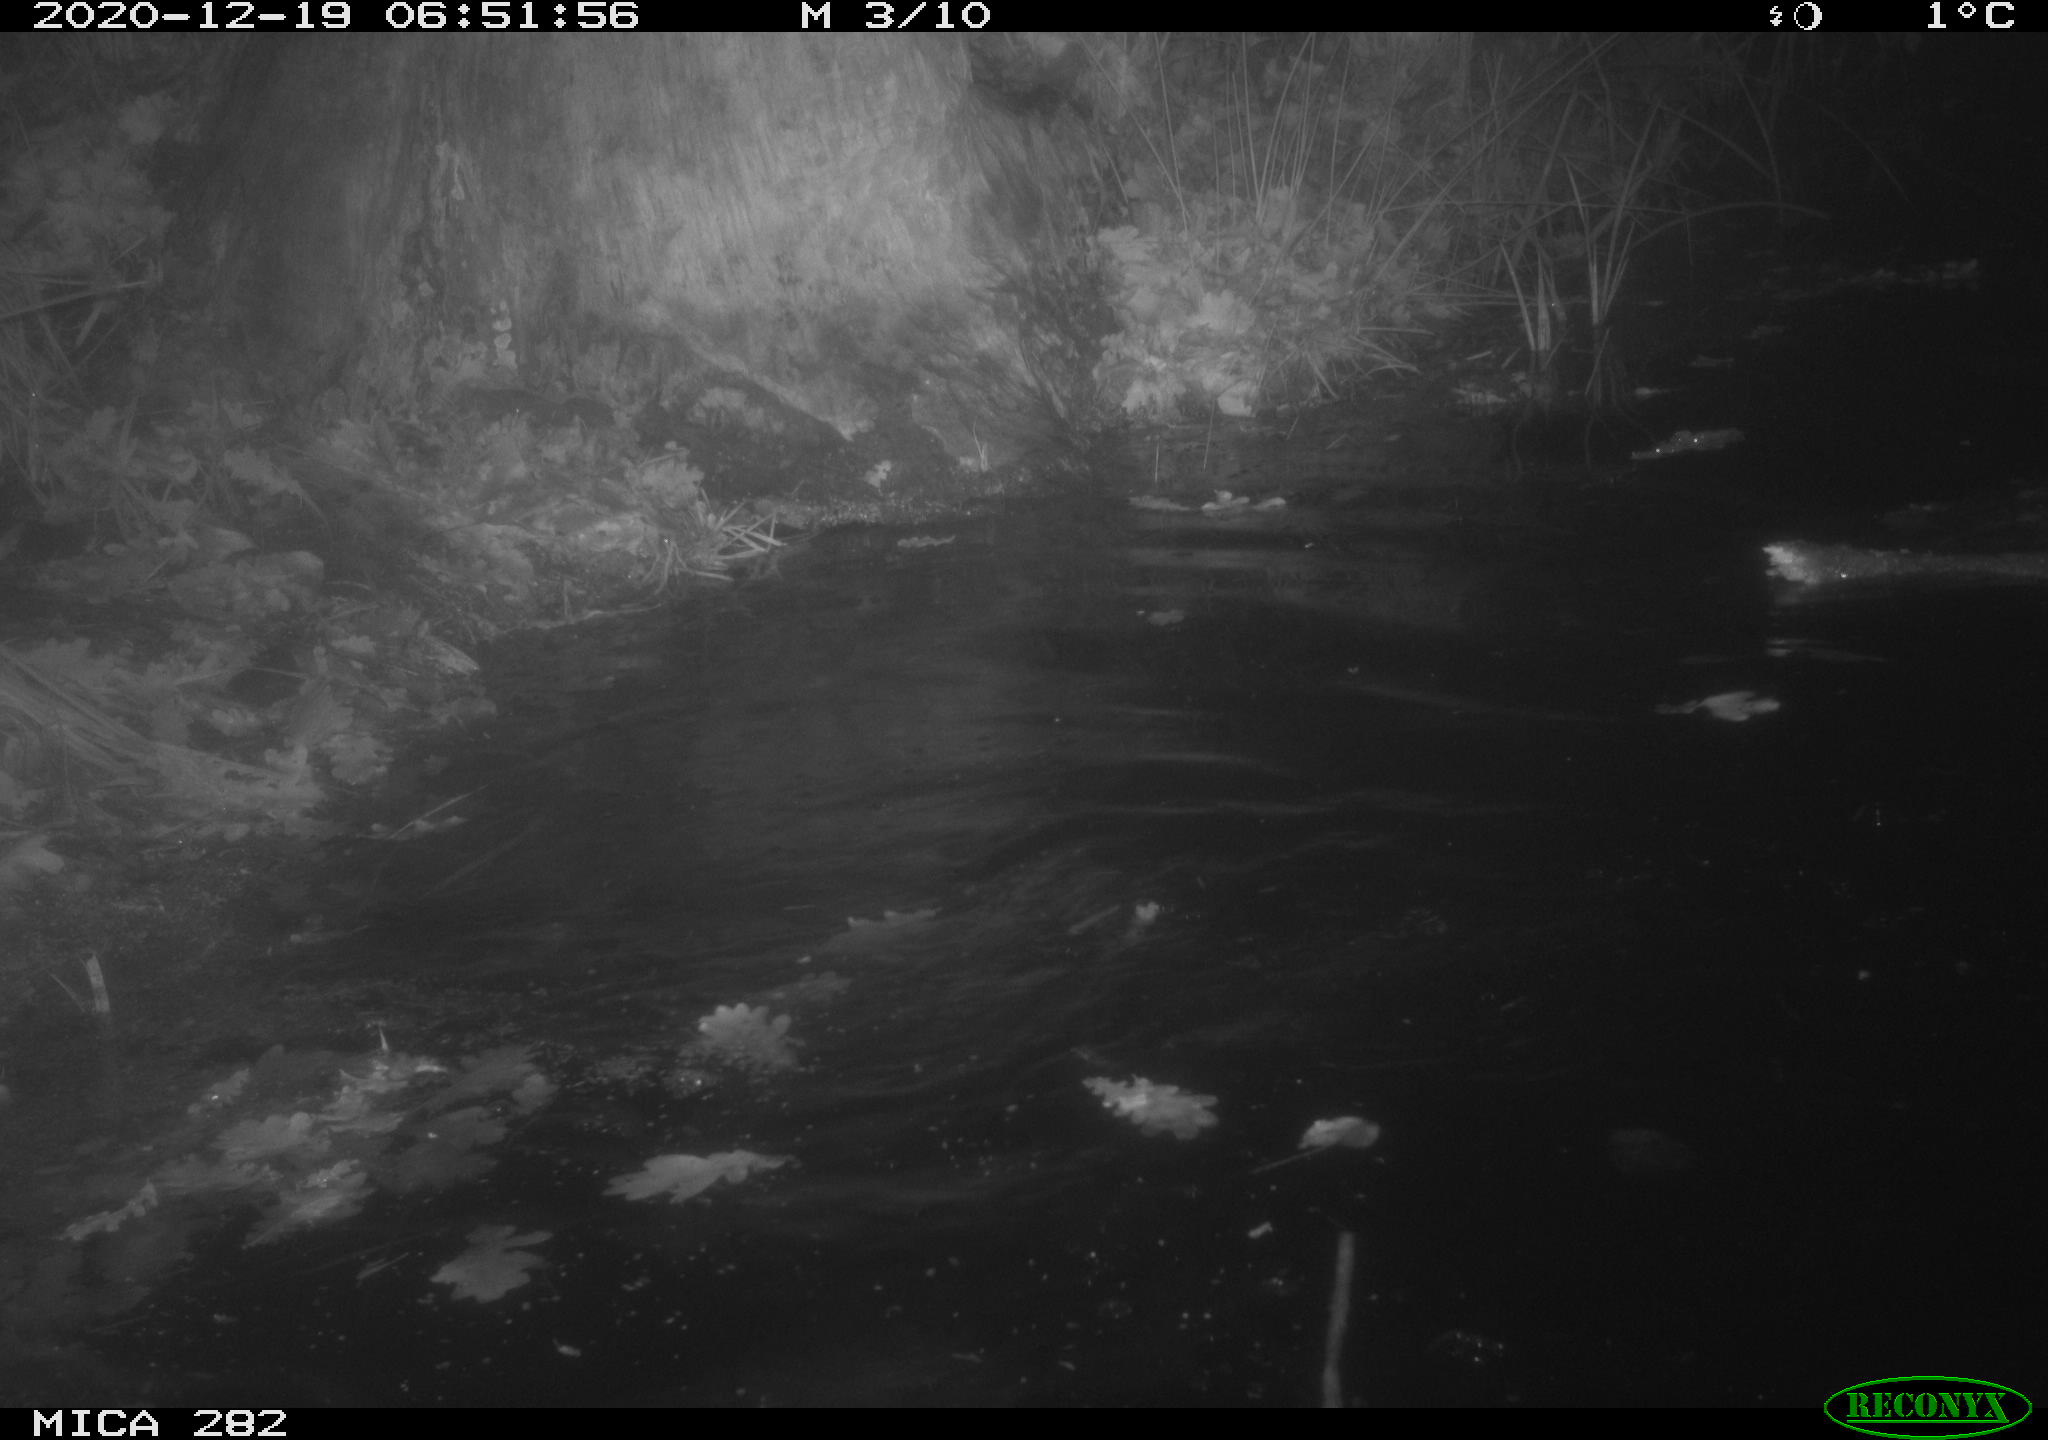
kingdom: Animalia
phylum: Chordata
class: Mammalia
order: Rodentia
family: Castoridae
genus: Castor
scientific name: Castor fiber
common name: Eurasian beaver
